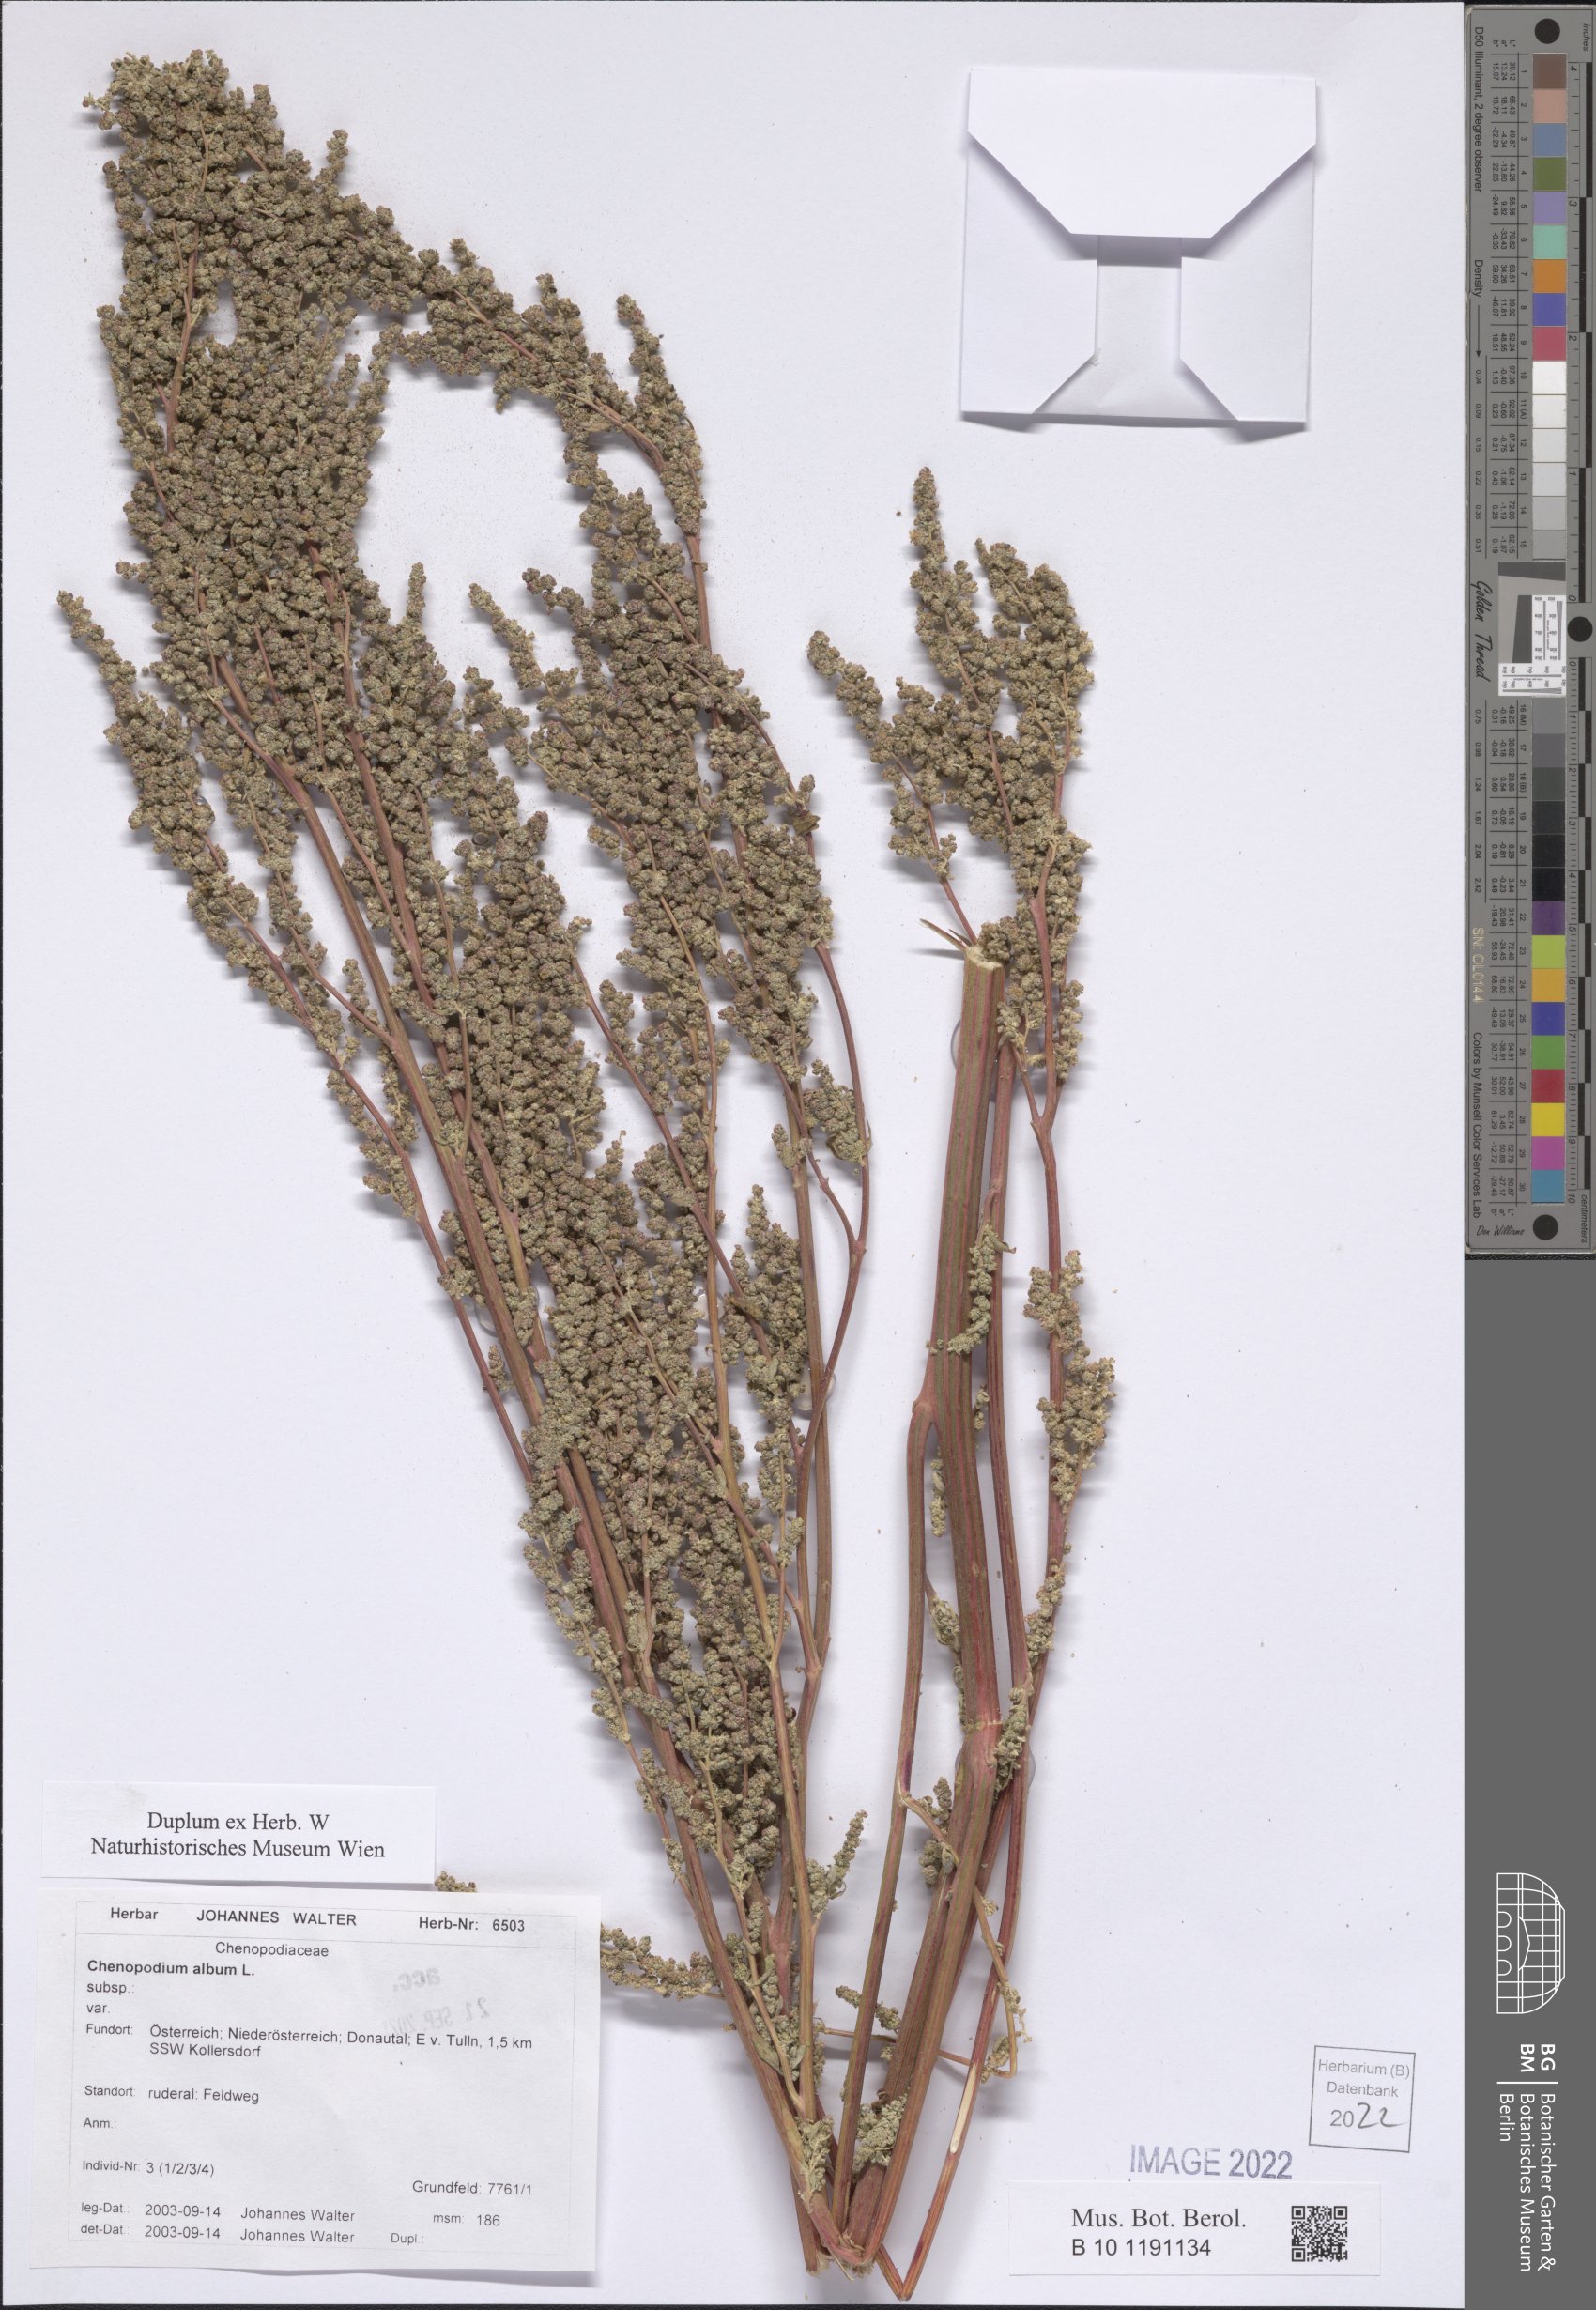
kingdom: Plantae
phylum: Tracheophyta
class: Magnoliopsida
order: Caryophyllales
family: Amaranthaceae
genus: Chenopodium
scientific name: Chenopodium album
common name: Fat-hen
